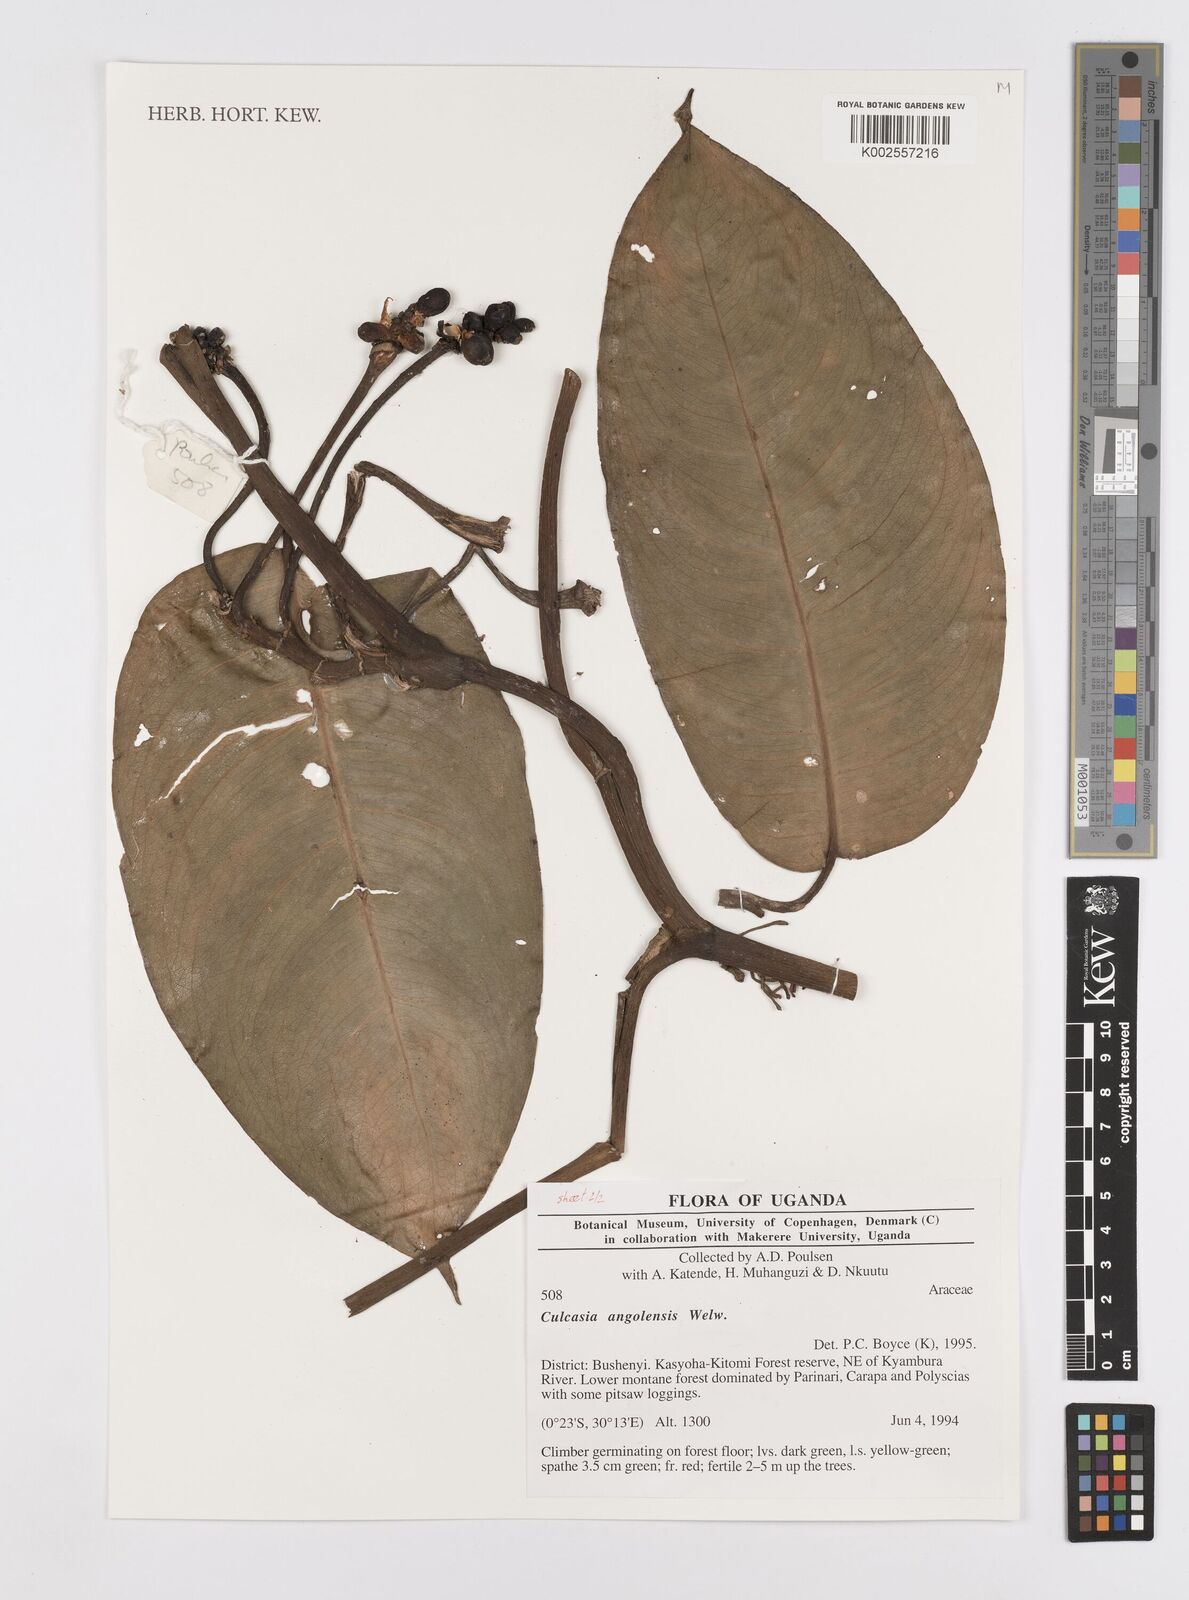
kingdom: Plantae
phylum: Tracheophyta
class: Liliopsida
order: Alismatales
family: Araceae
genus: Culcasia
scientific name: Culcasia angolensis
